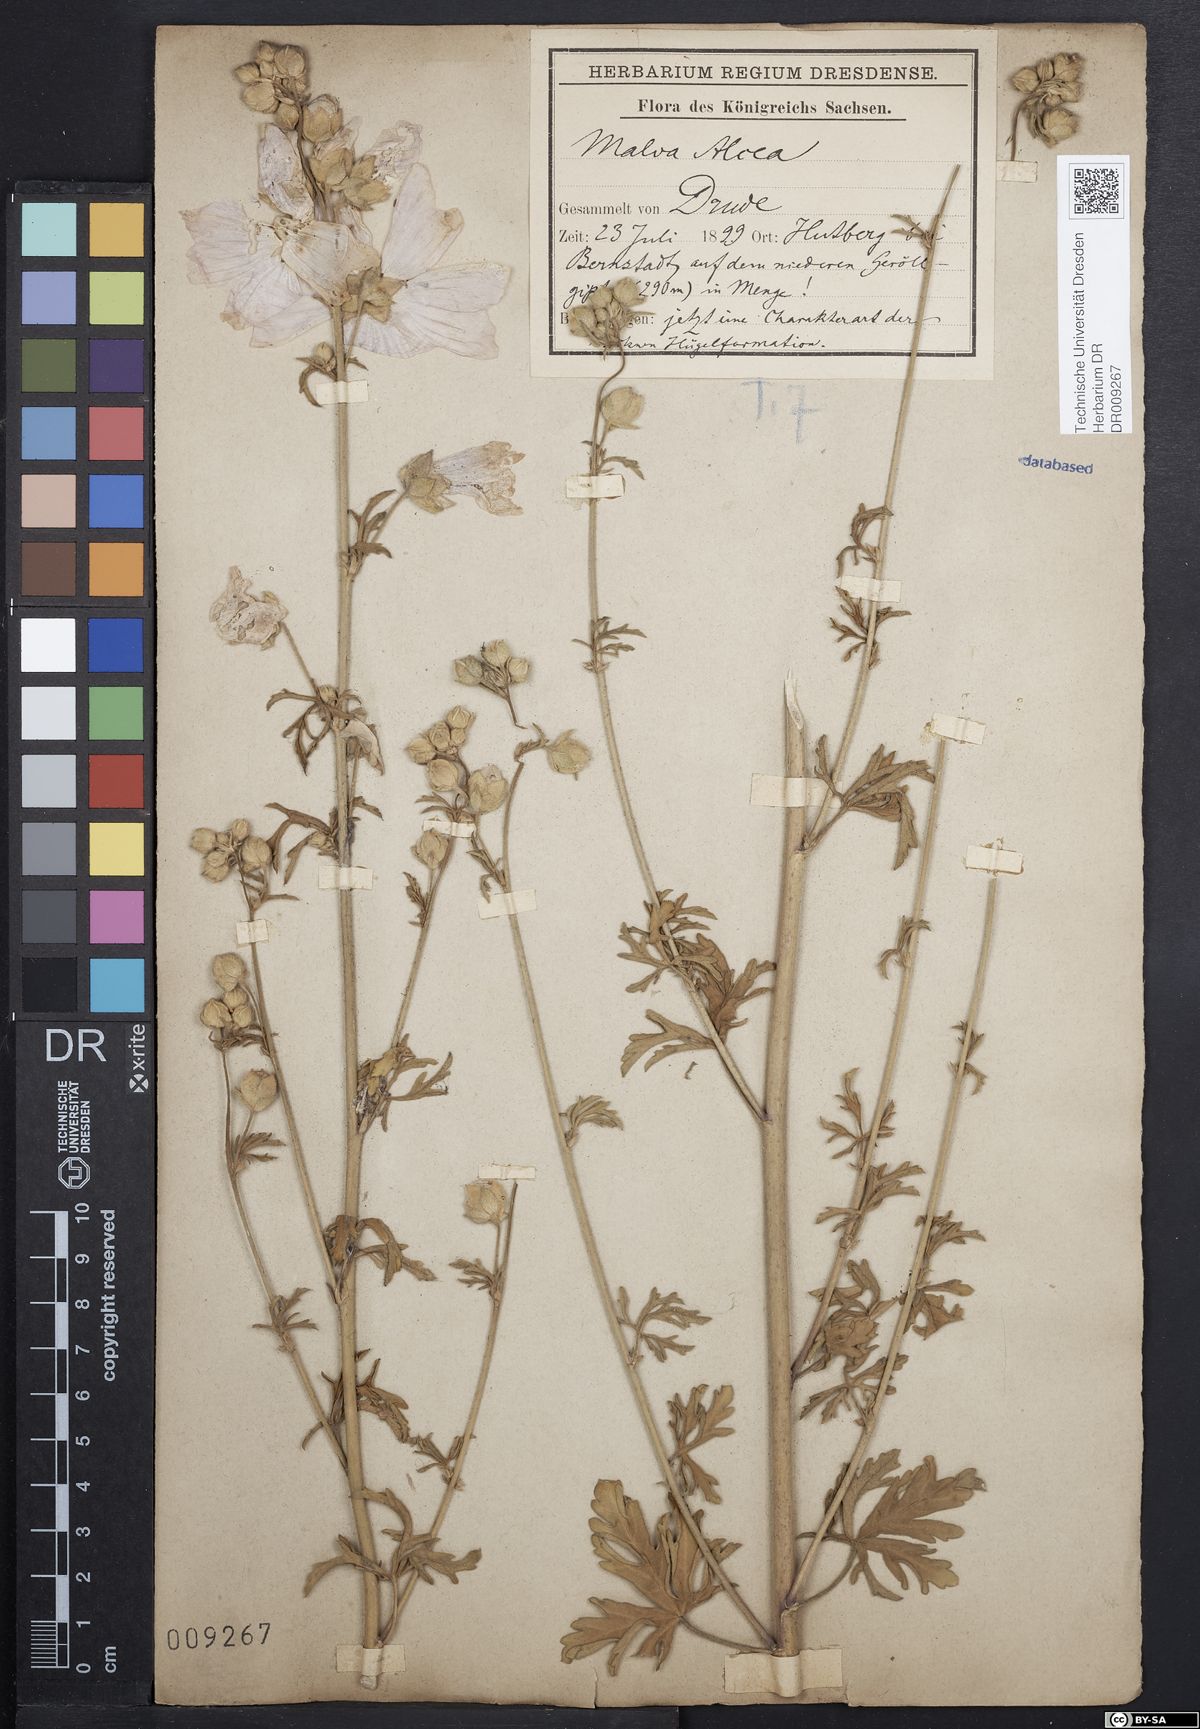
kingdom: Plantae
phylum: Tracheophyta
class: Magnoliopsida
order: Malvales
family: Malvaceae
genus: Malva
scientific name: Malva alcea
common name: Greater musk-mallow
